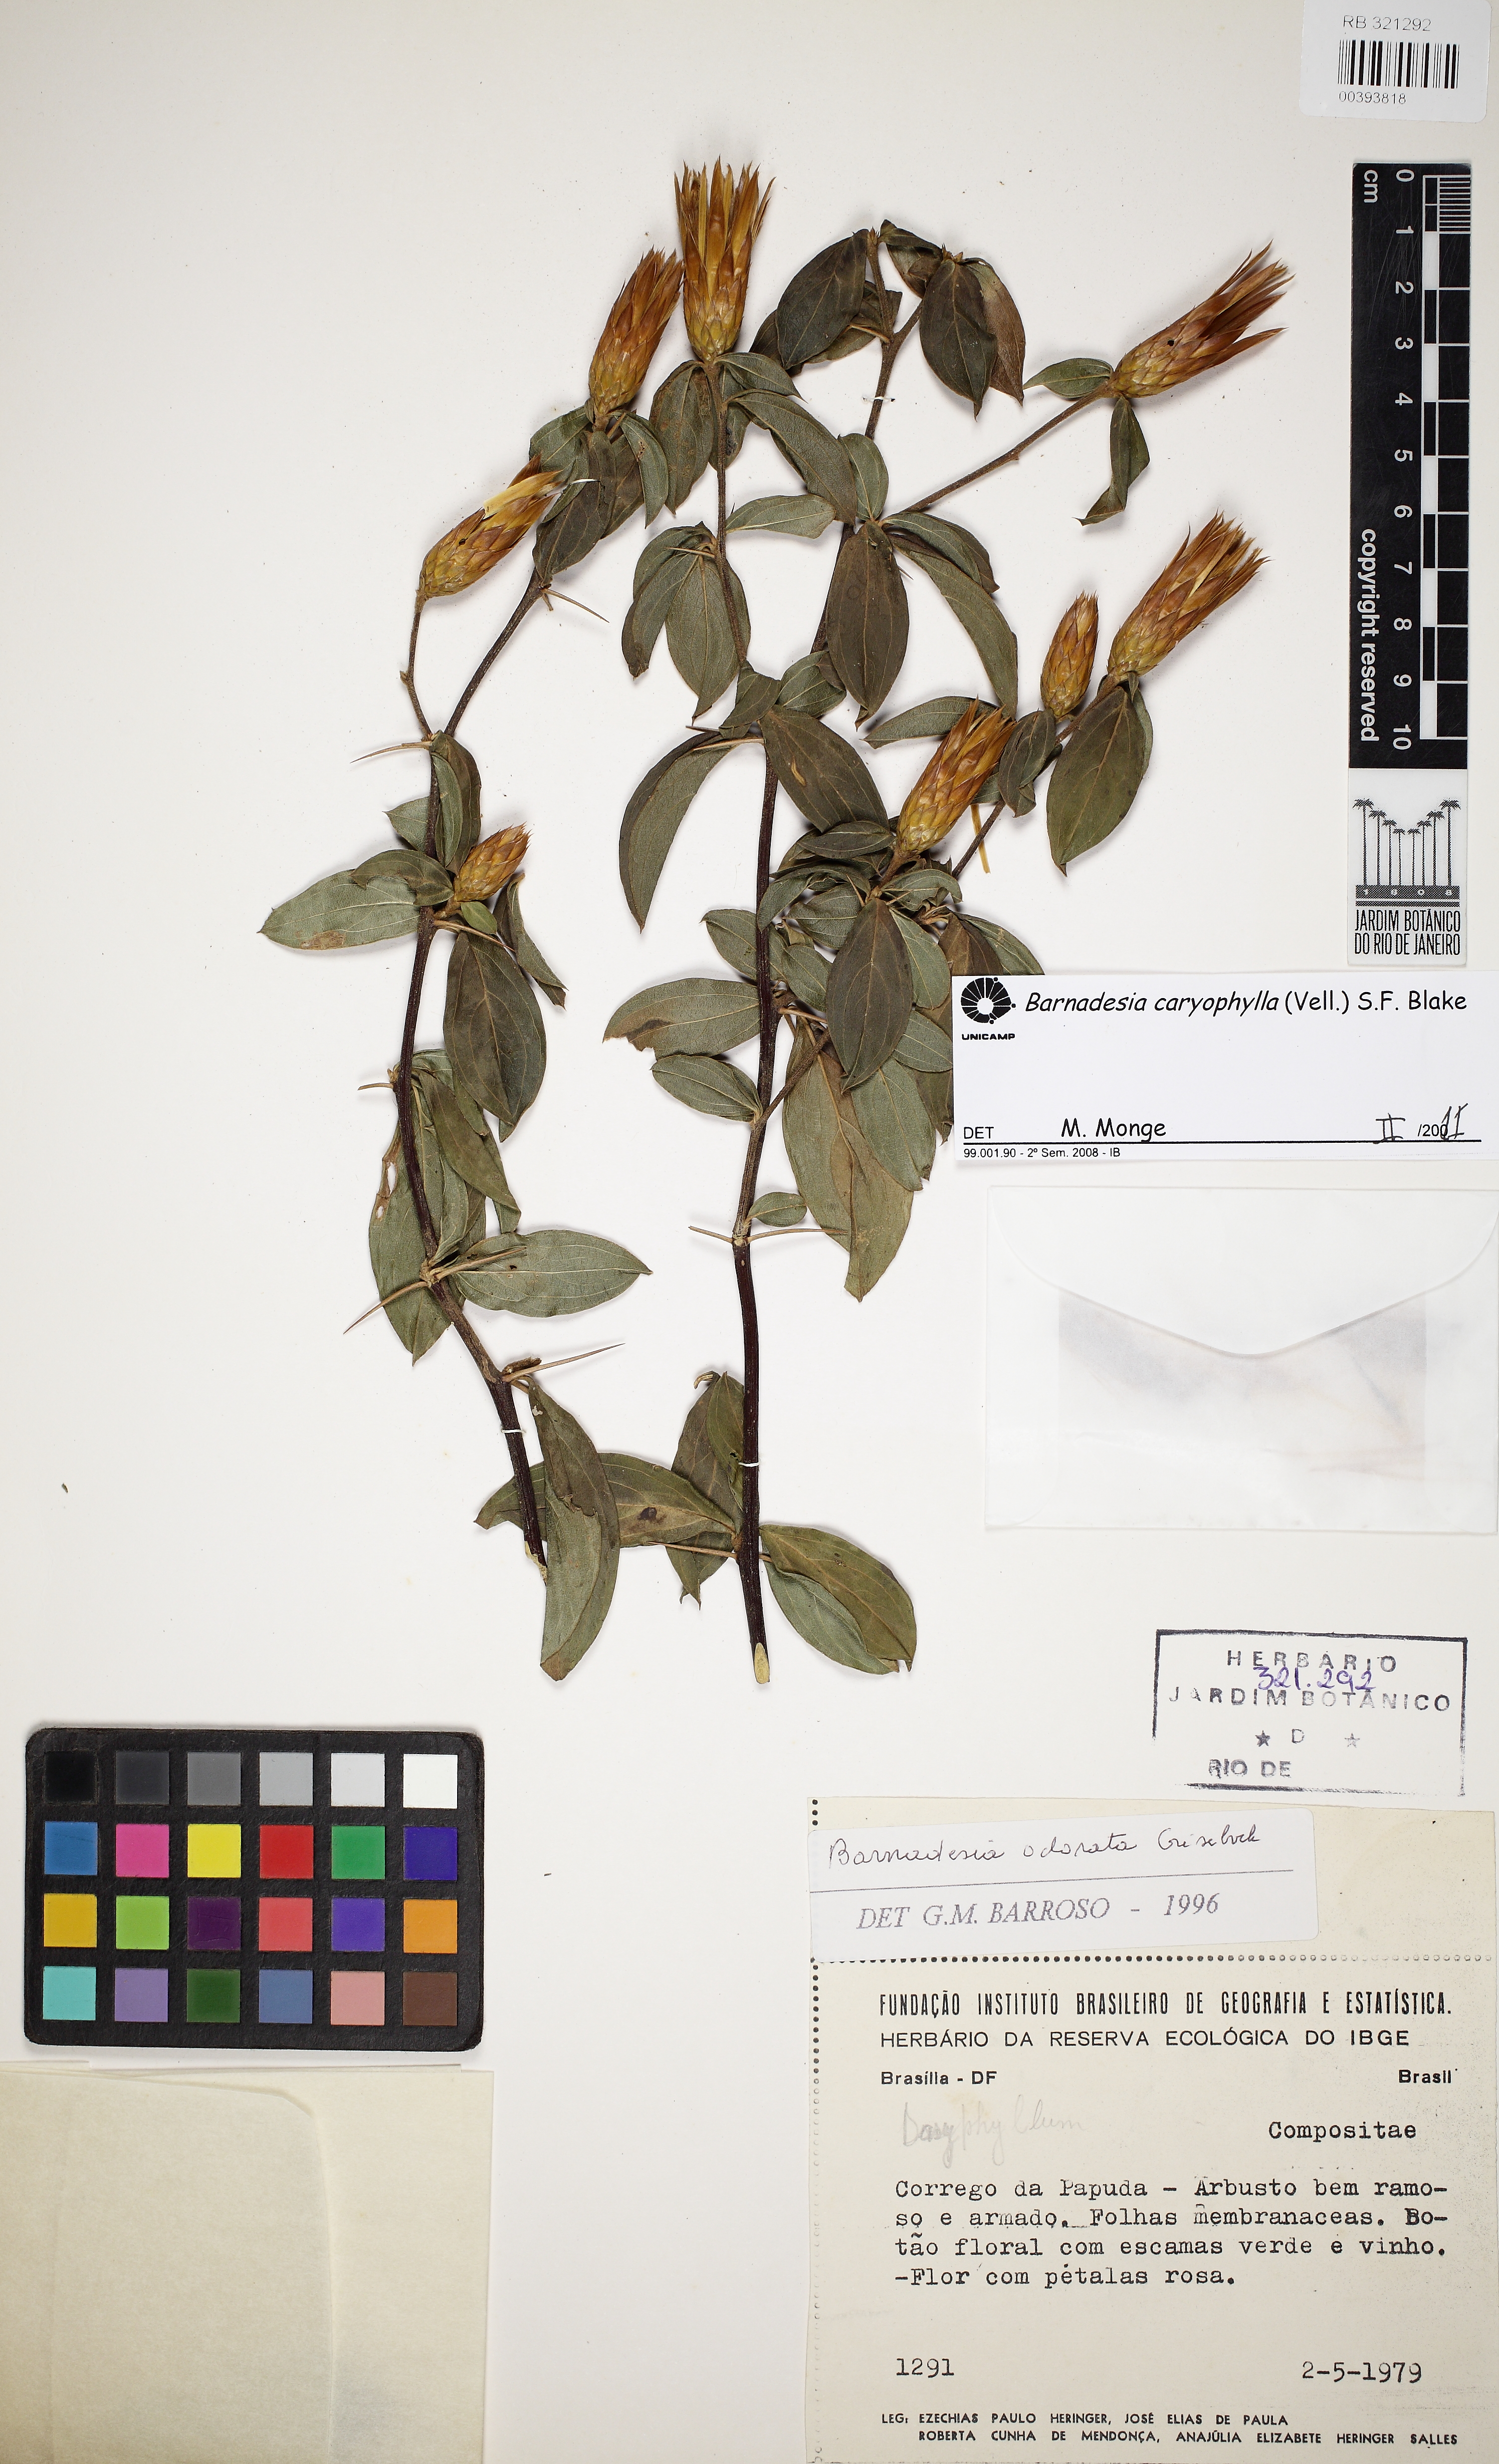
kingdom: Plantae
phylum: Tracheophyta
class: Magnoliopsida
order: Asterales
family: Asteraceae
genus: Barnadesia
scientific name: Barnadesia caryophylla
